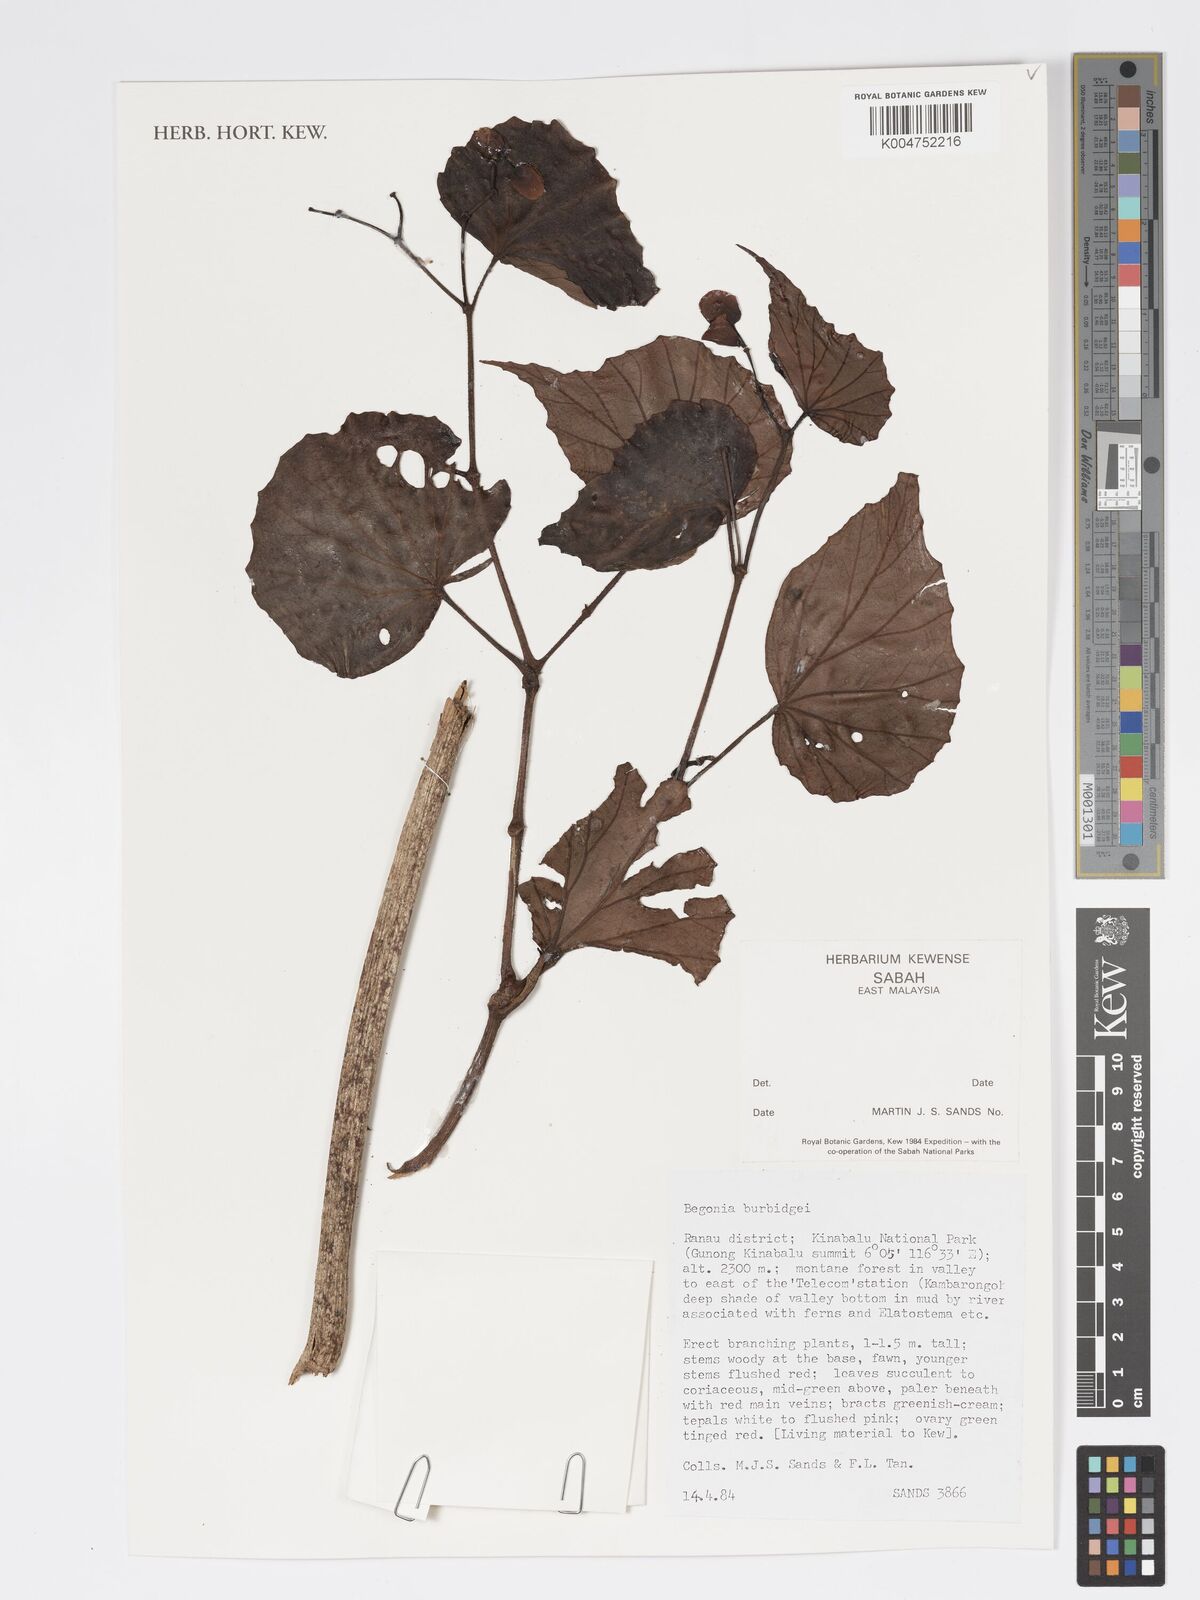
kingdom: Plantae
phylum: Tracheophyta
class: Magnoliopsida
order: Cucurbitales
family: Begoniaceae
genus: Begonia
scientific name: Begonia burbidgei
